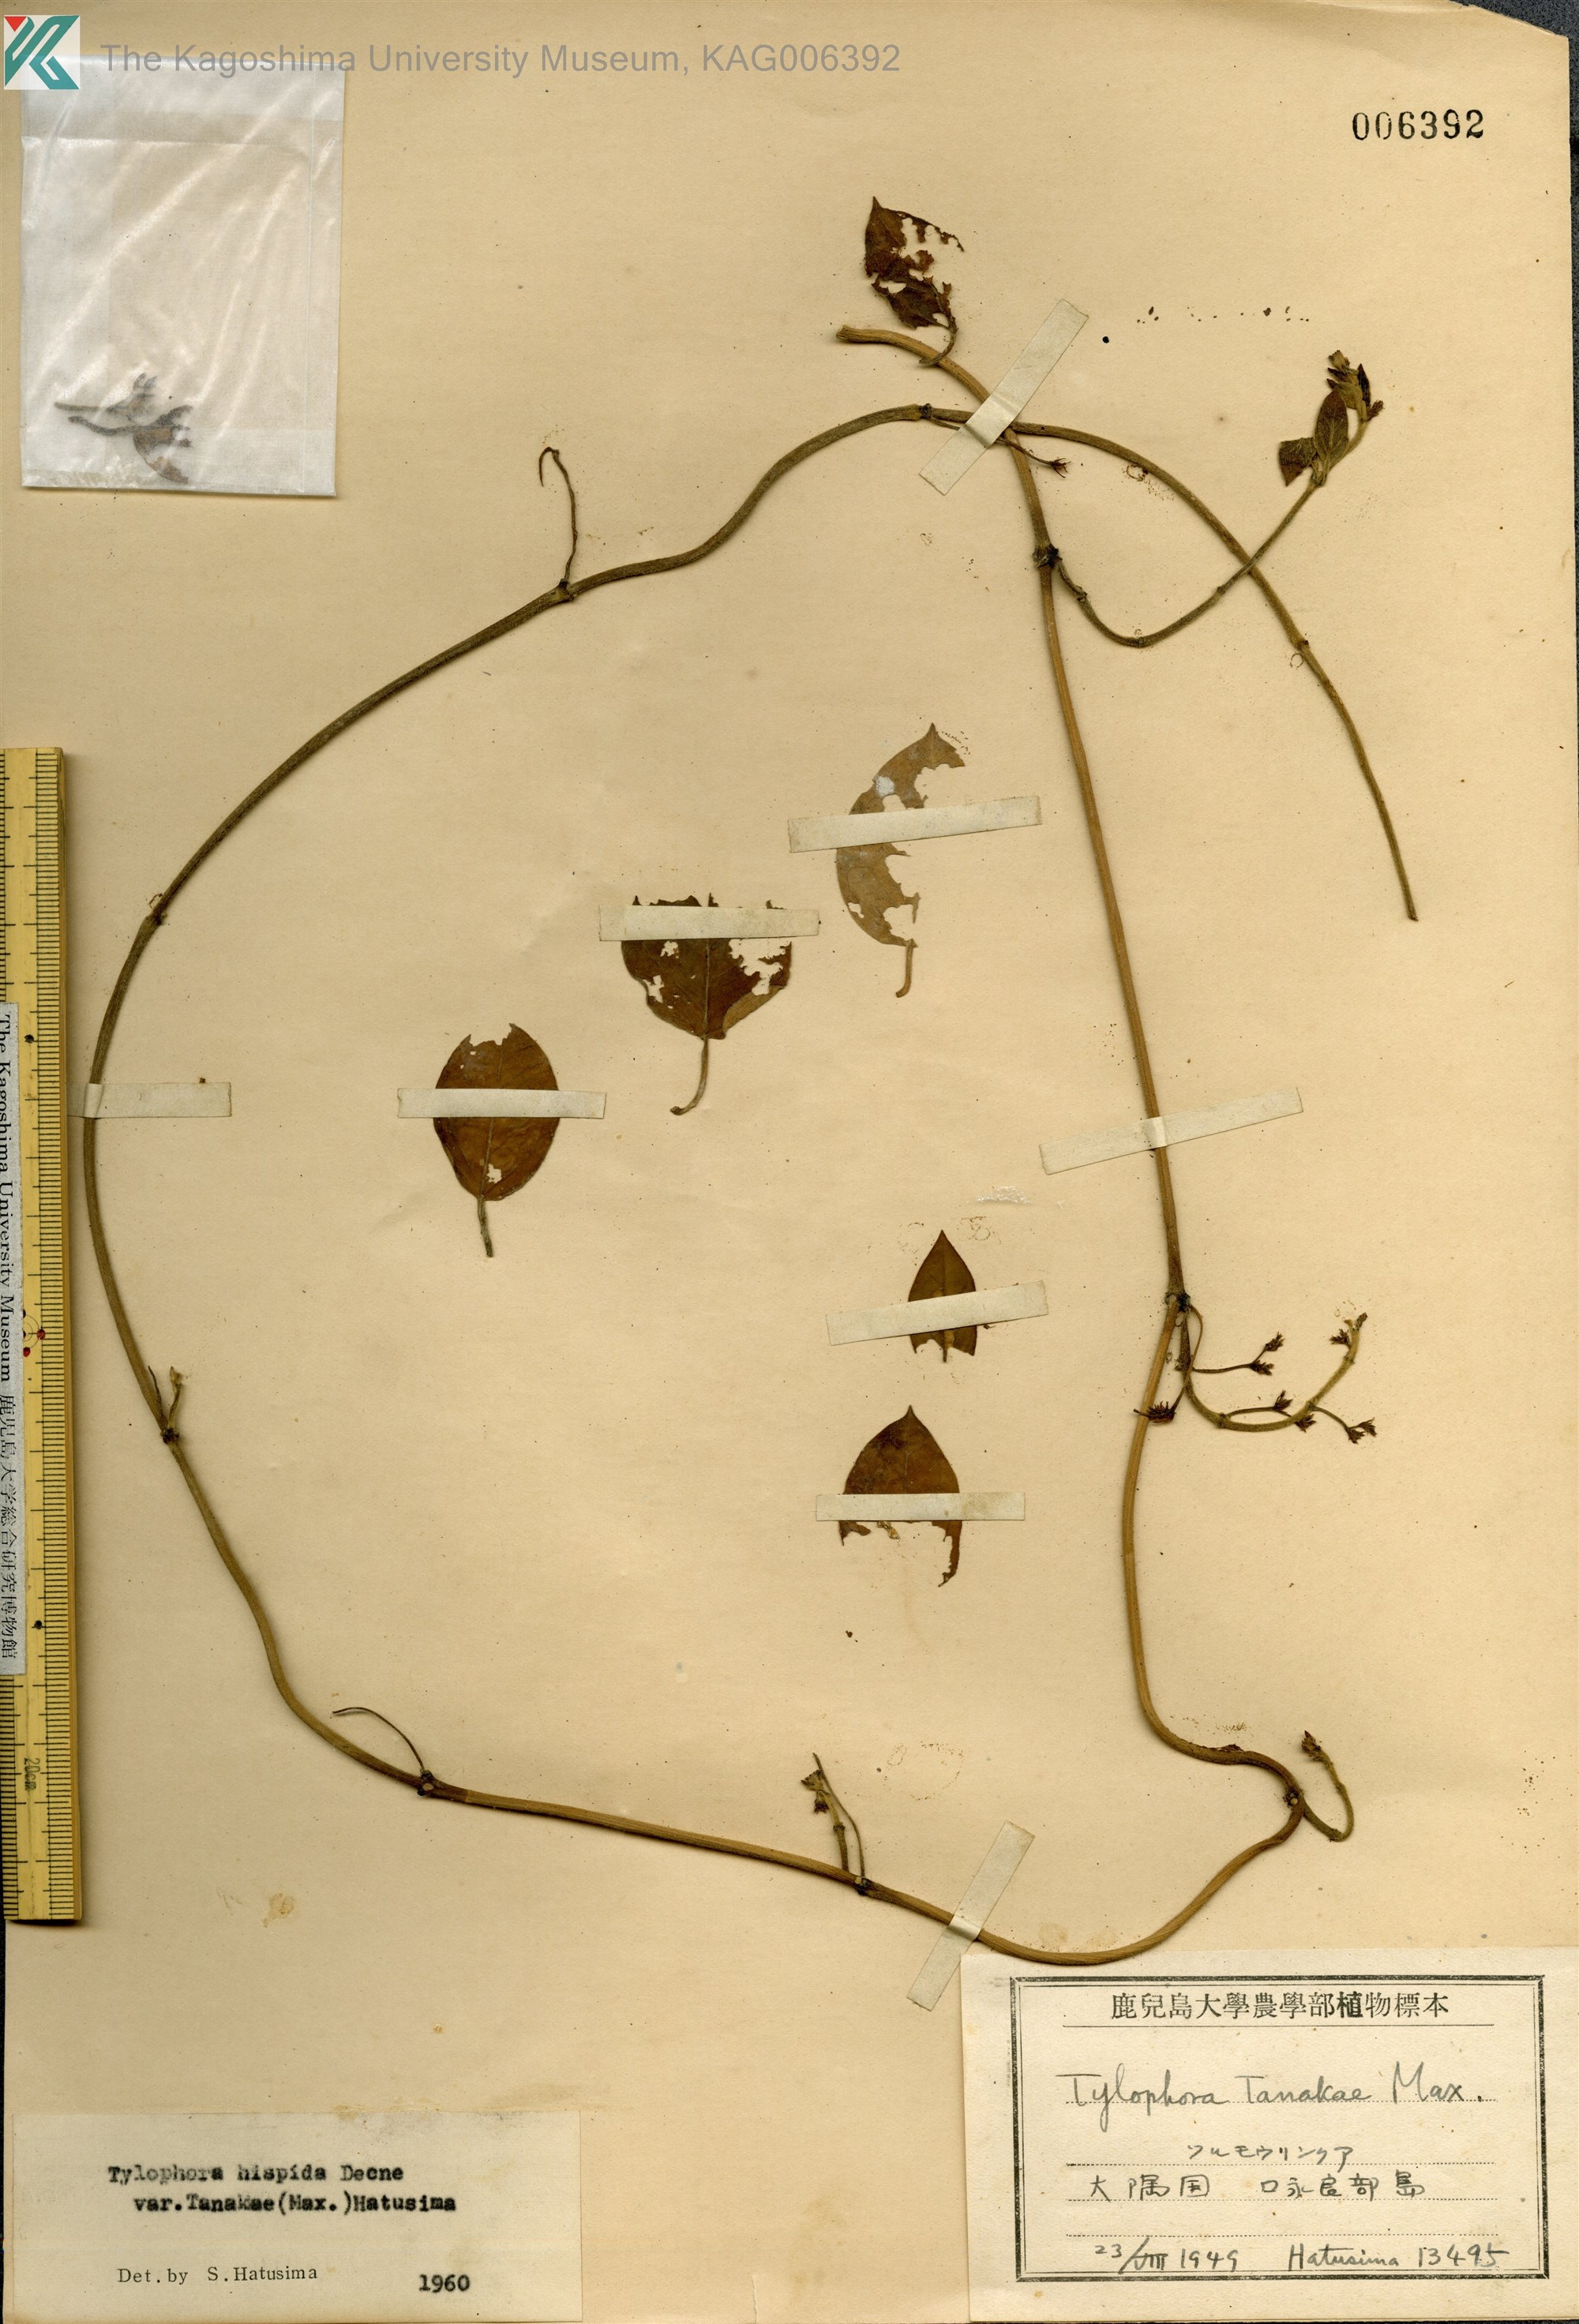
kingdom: Plantae
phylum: Tracheophyta
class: Magnoliopsida
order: Gentianales
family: Apocynaceae
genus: Vincetoxicum
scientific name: Vincetoxicum Tylophora tanakae
